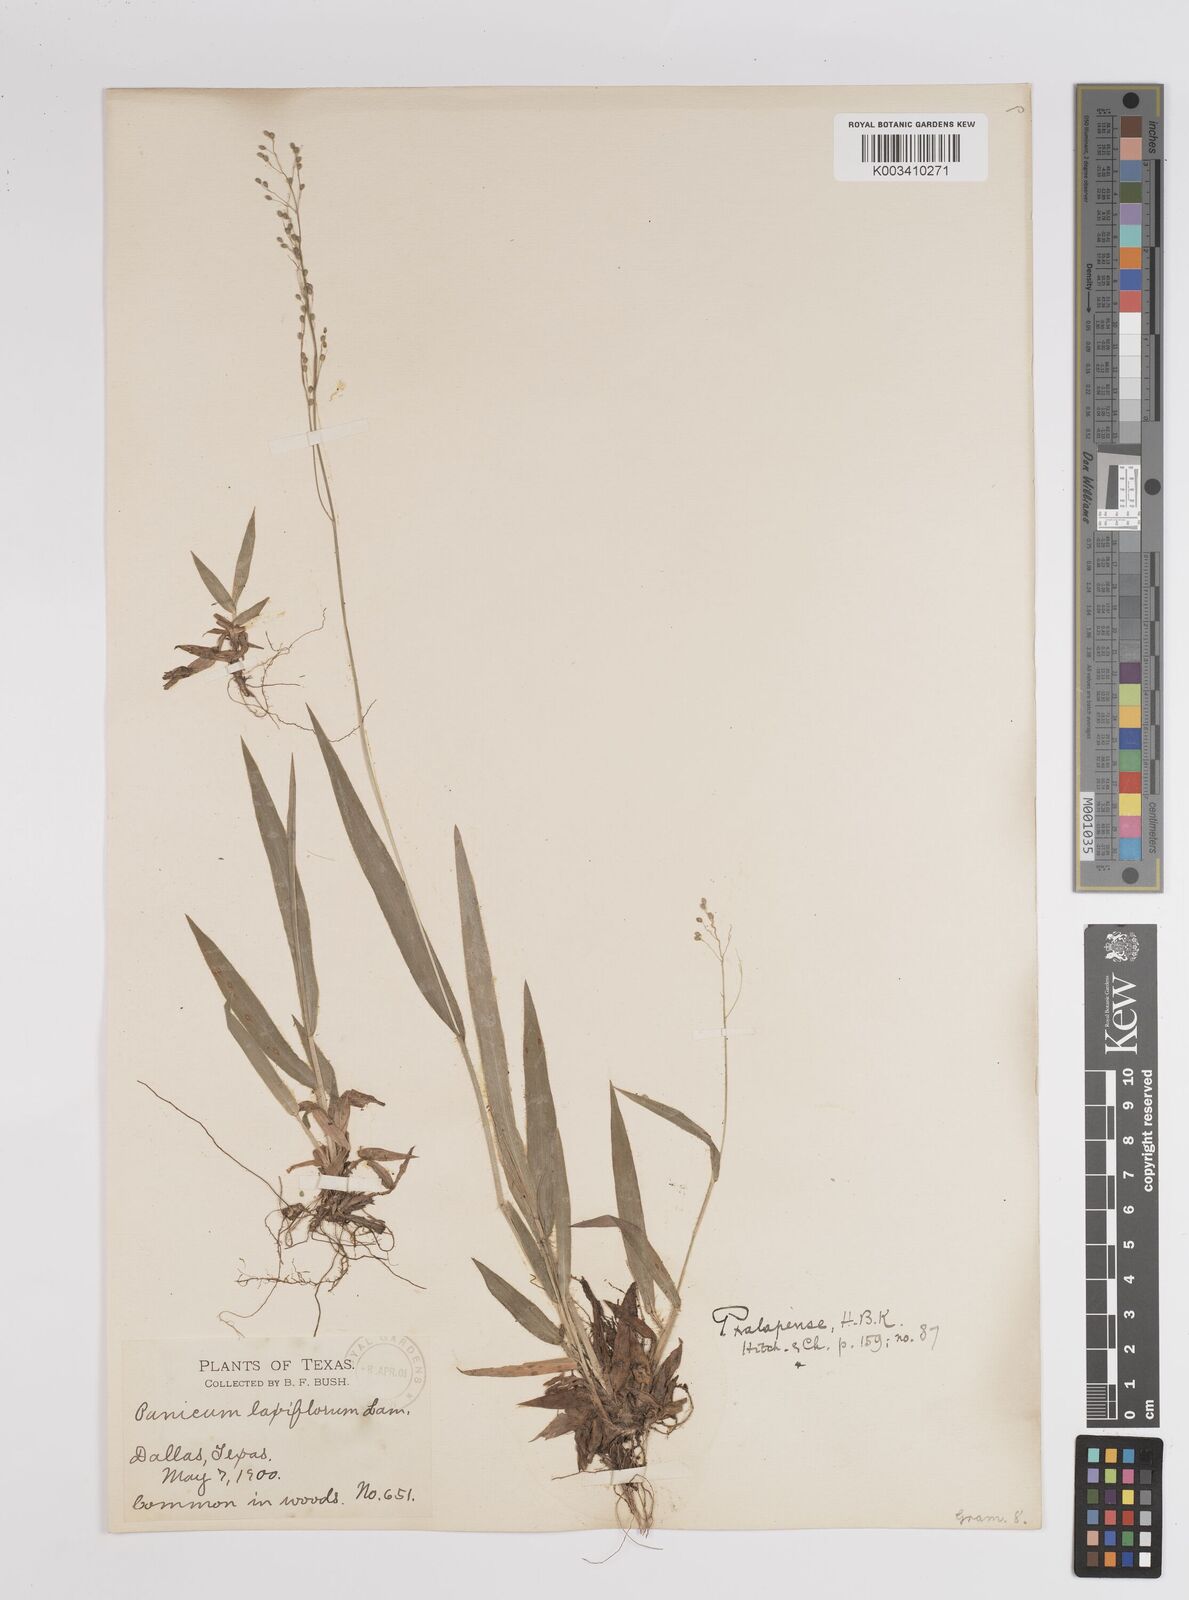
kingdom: Plantae
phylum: Tracheophyta
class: Liliopsida
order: Poales
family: Poaceae
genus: Dichanthelium
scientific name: Dichanthelium laxiflorum
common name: Soft-tuft panic grass
